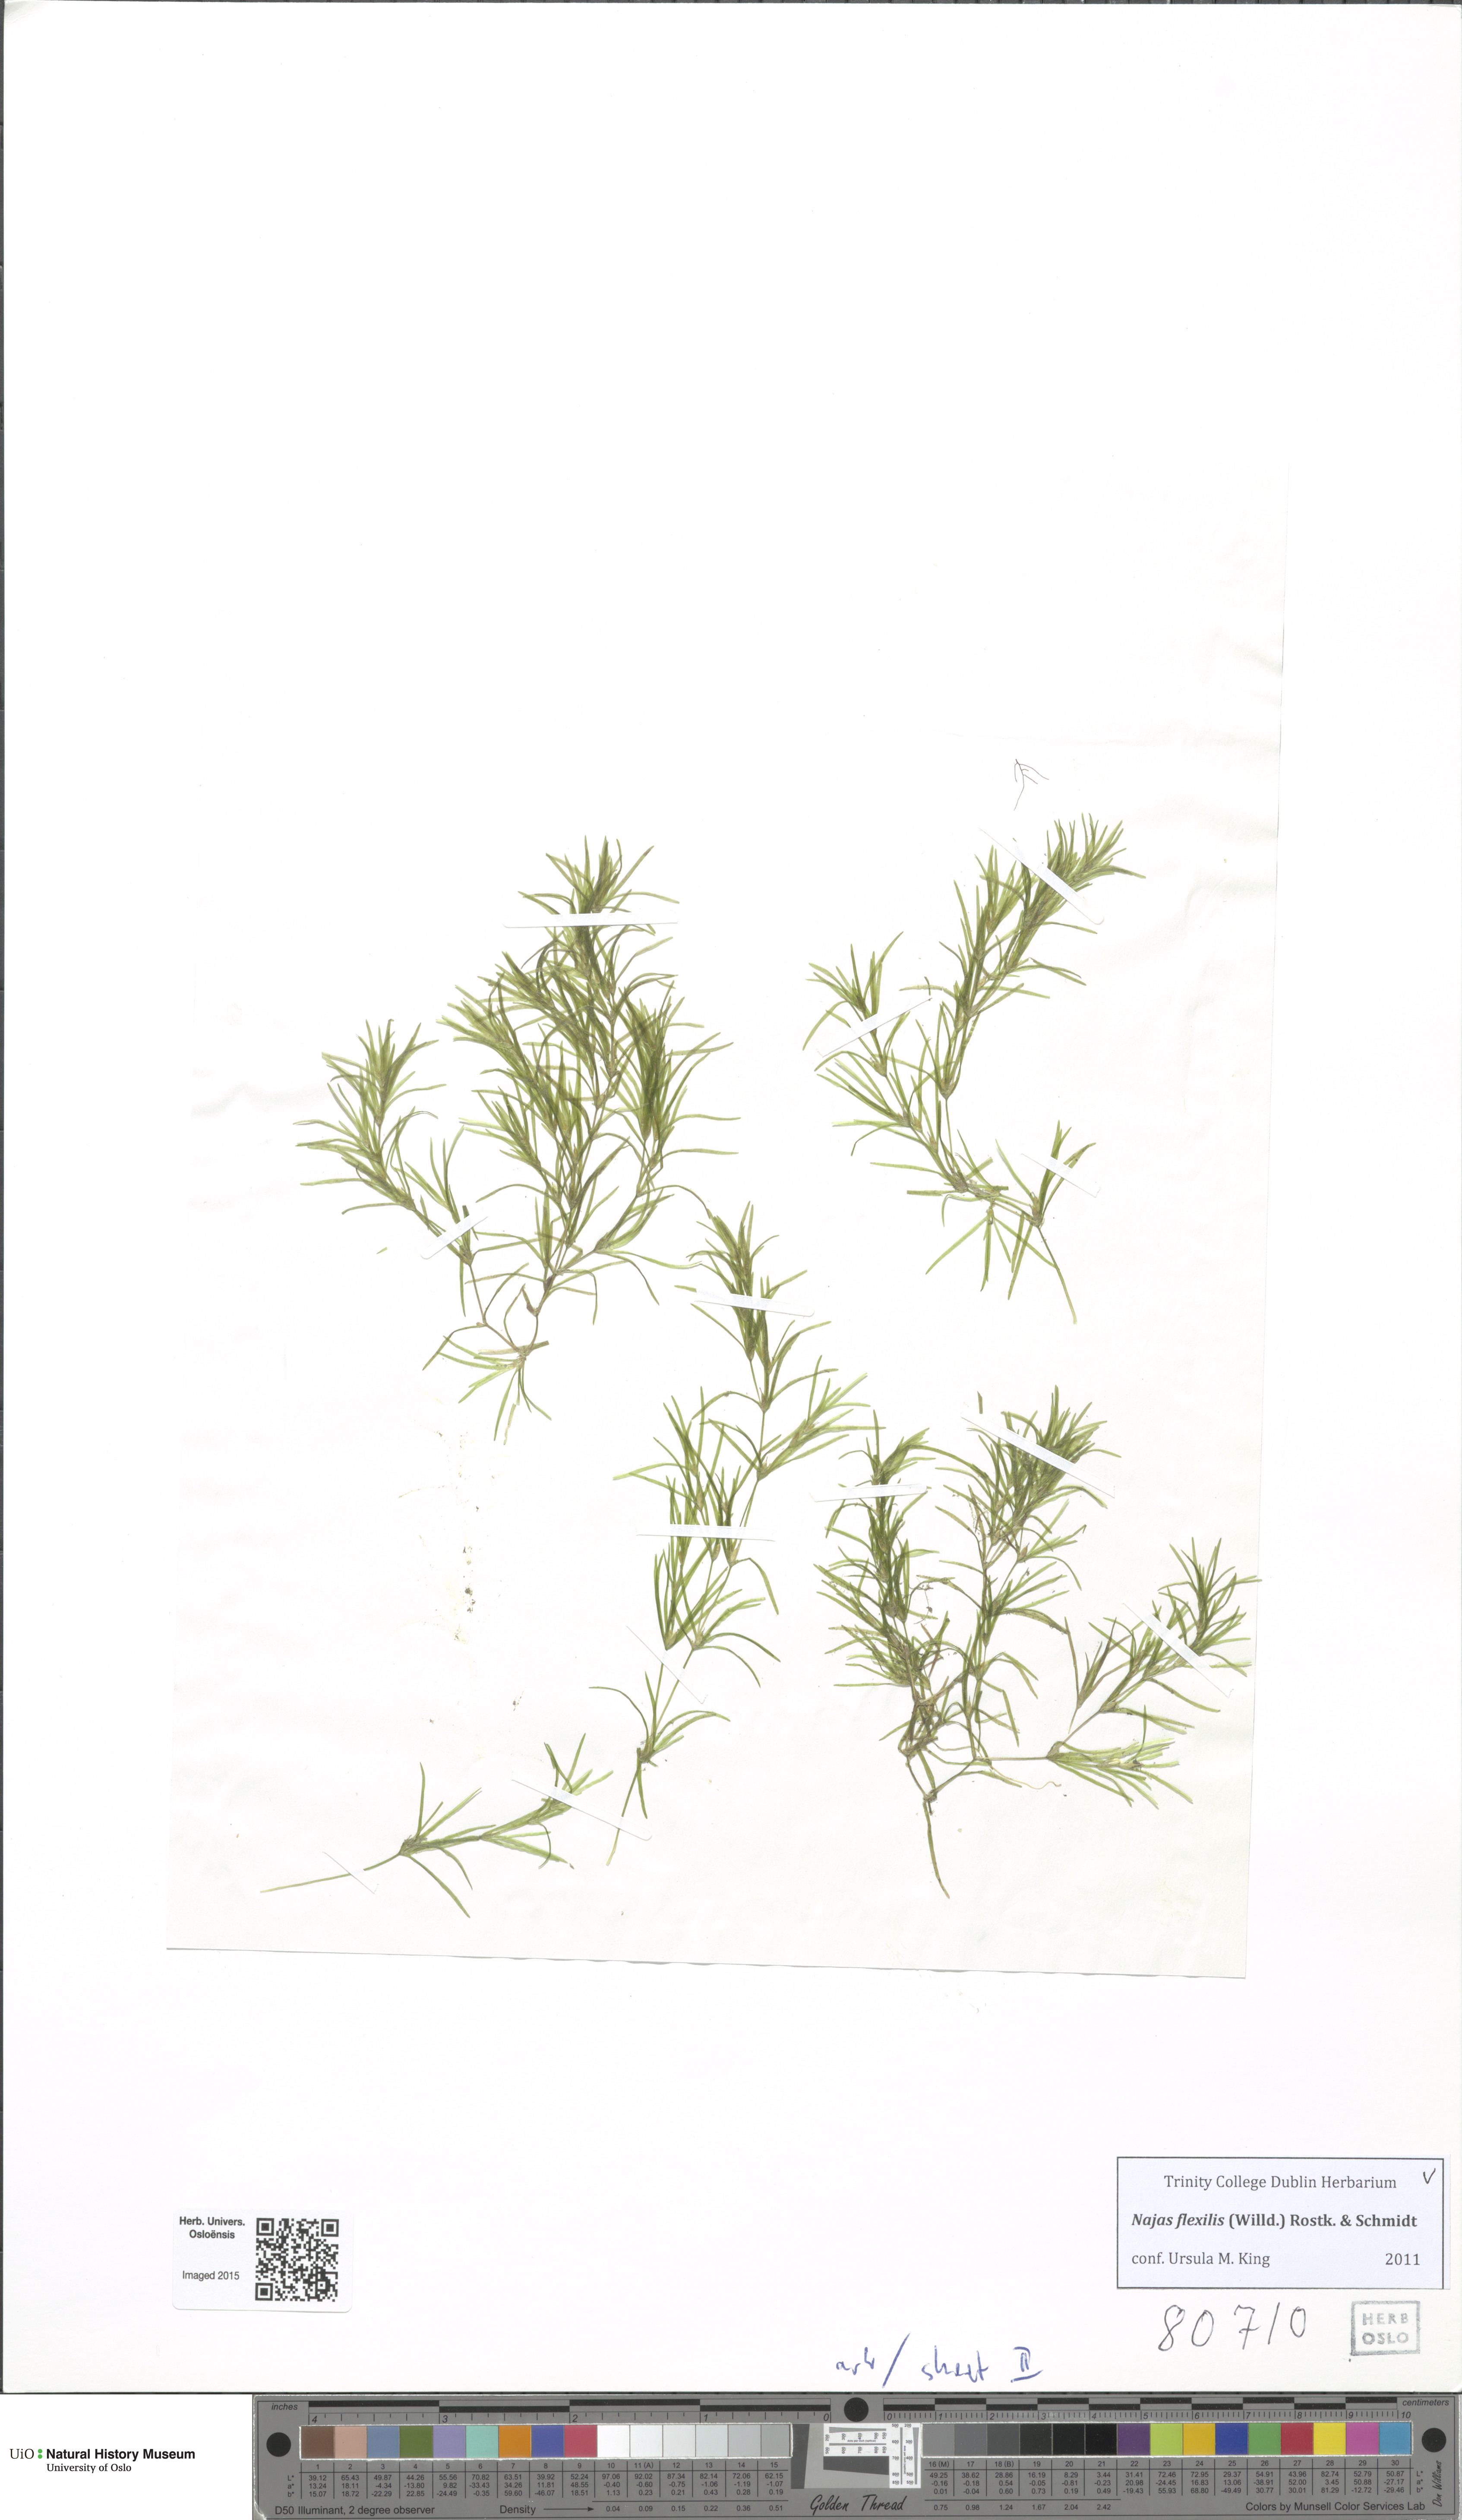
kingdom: Plantae
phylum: Tracheophyta
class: Liliopsida
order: Alismatales
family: Hydrocharitaceae
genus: Najas
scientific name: Najas flexilis
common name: Slender naiad
